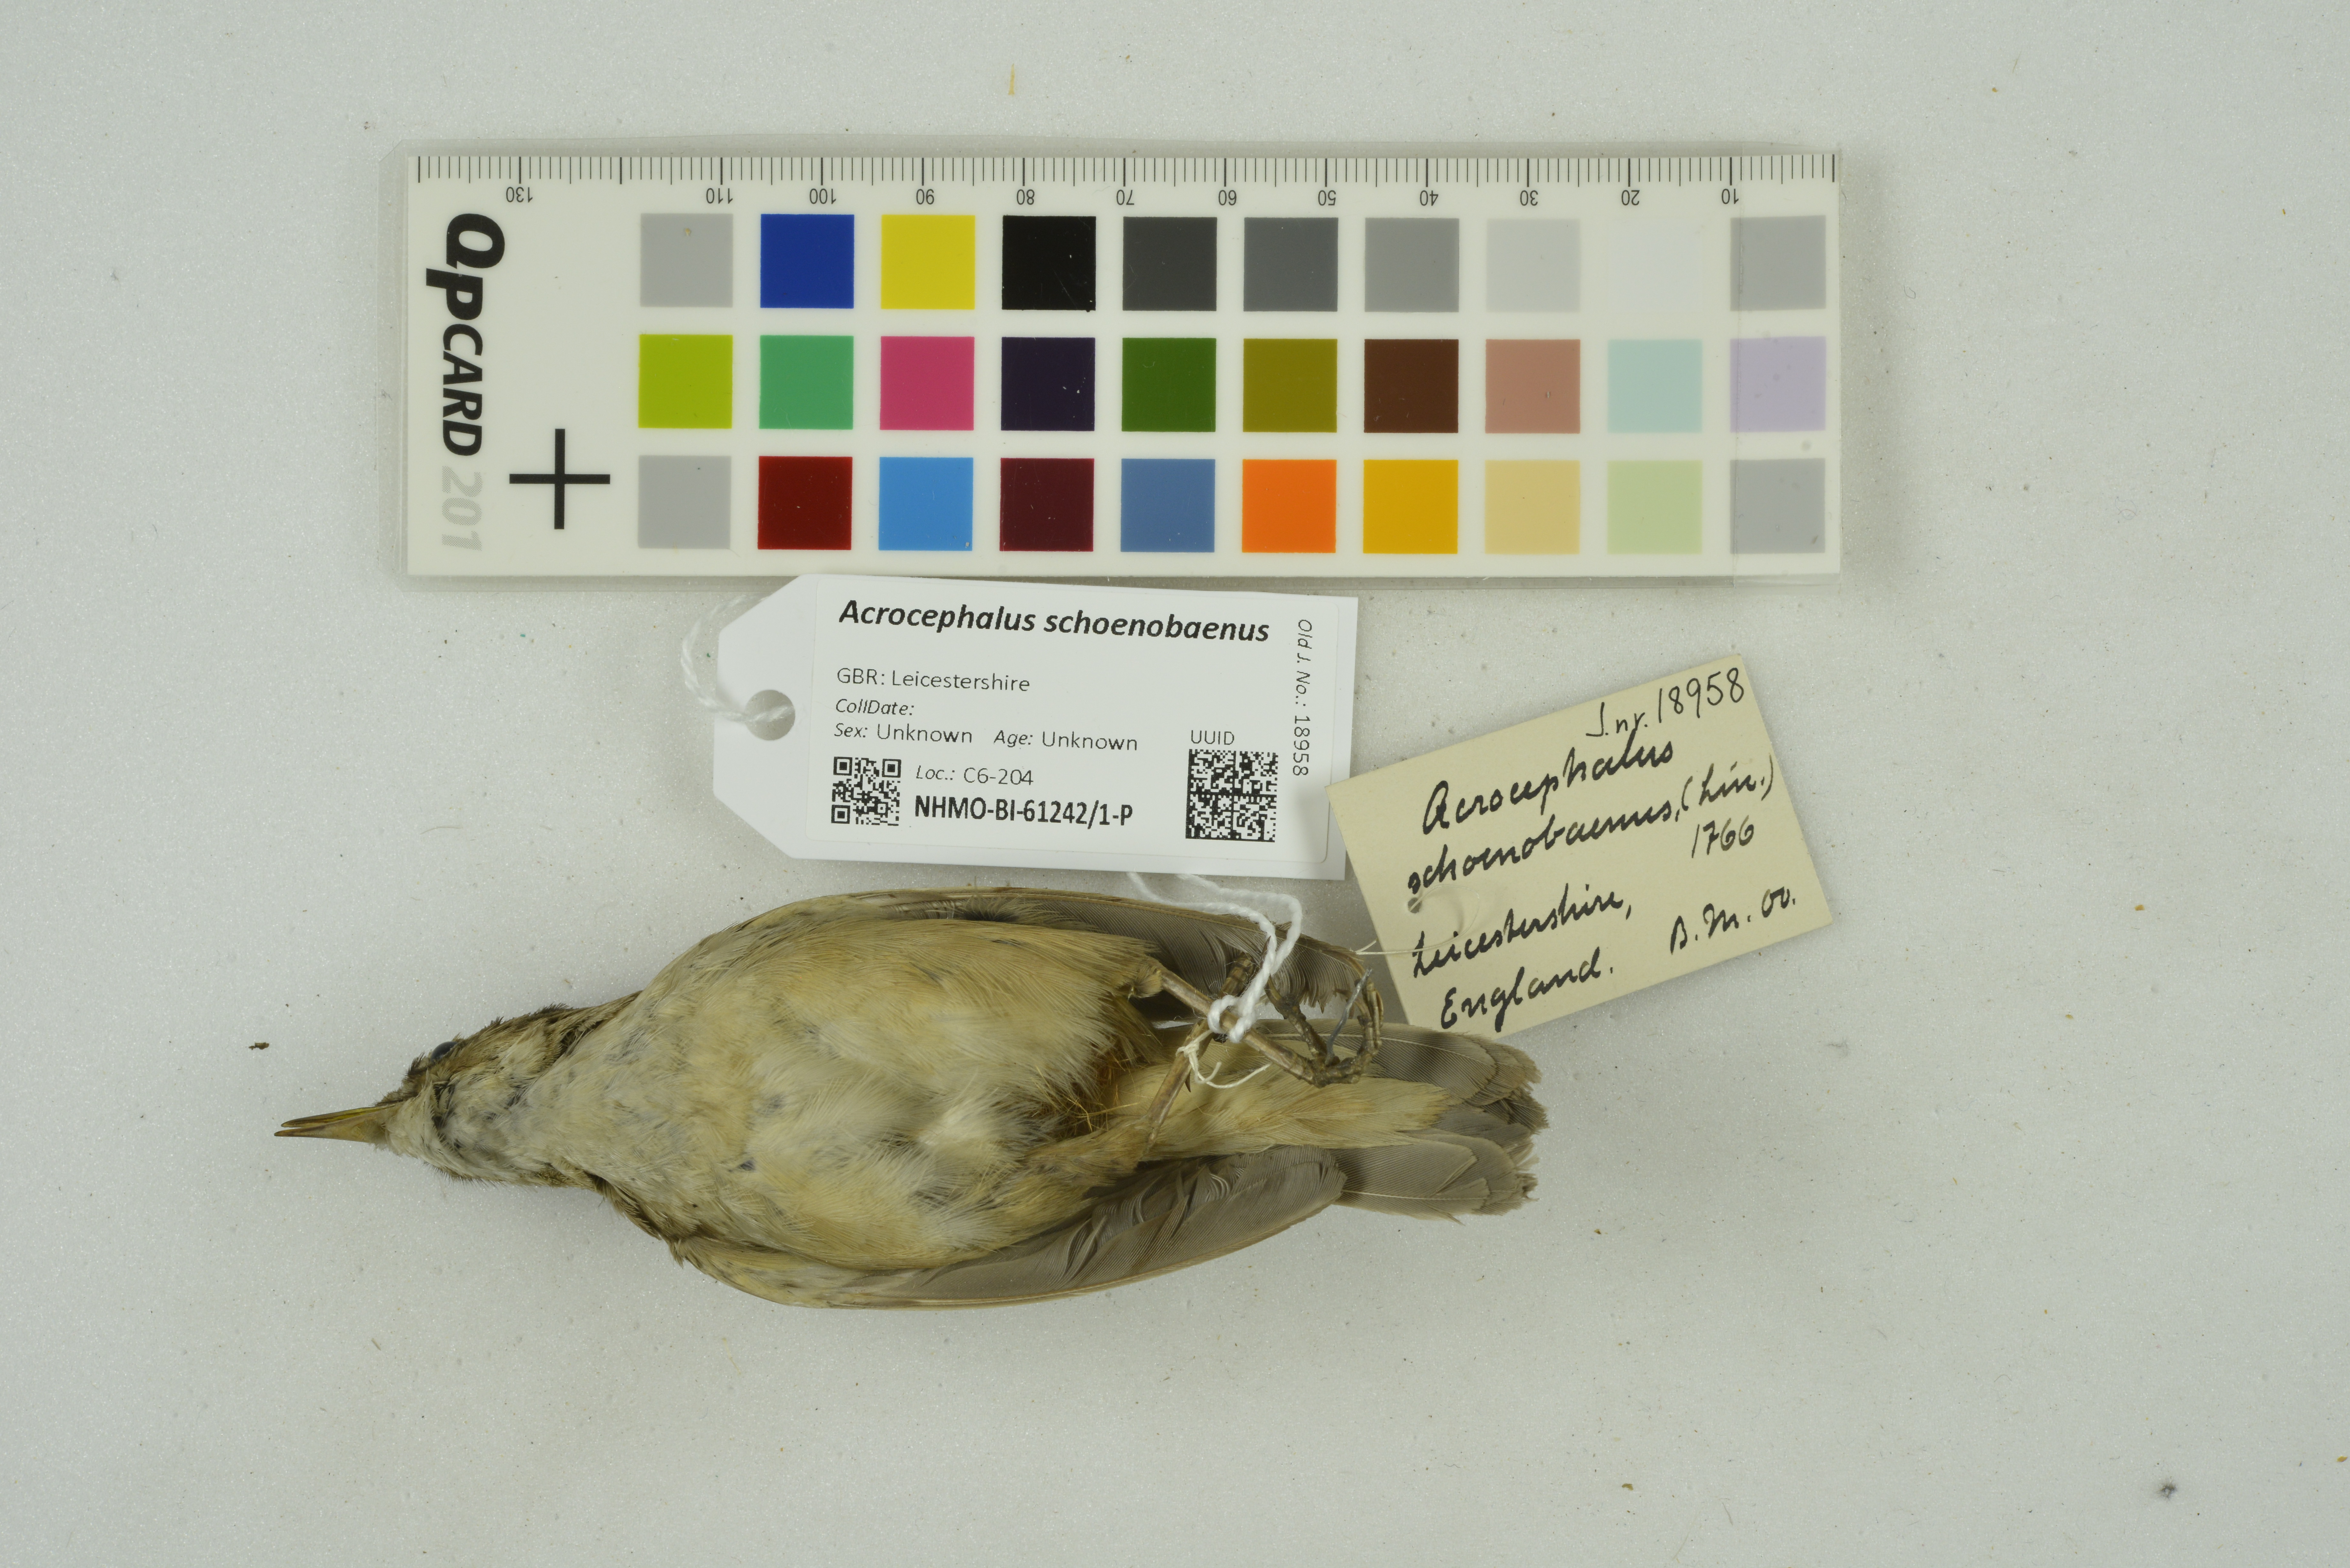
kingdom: Animalia
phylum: Chordata
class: Aves
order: Passeriformes
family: Acrocephalidae
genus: Acrocephalus
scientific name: Acrocephalus schoenobaenus
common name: Sedge warbler
